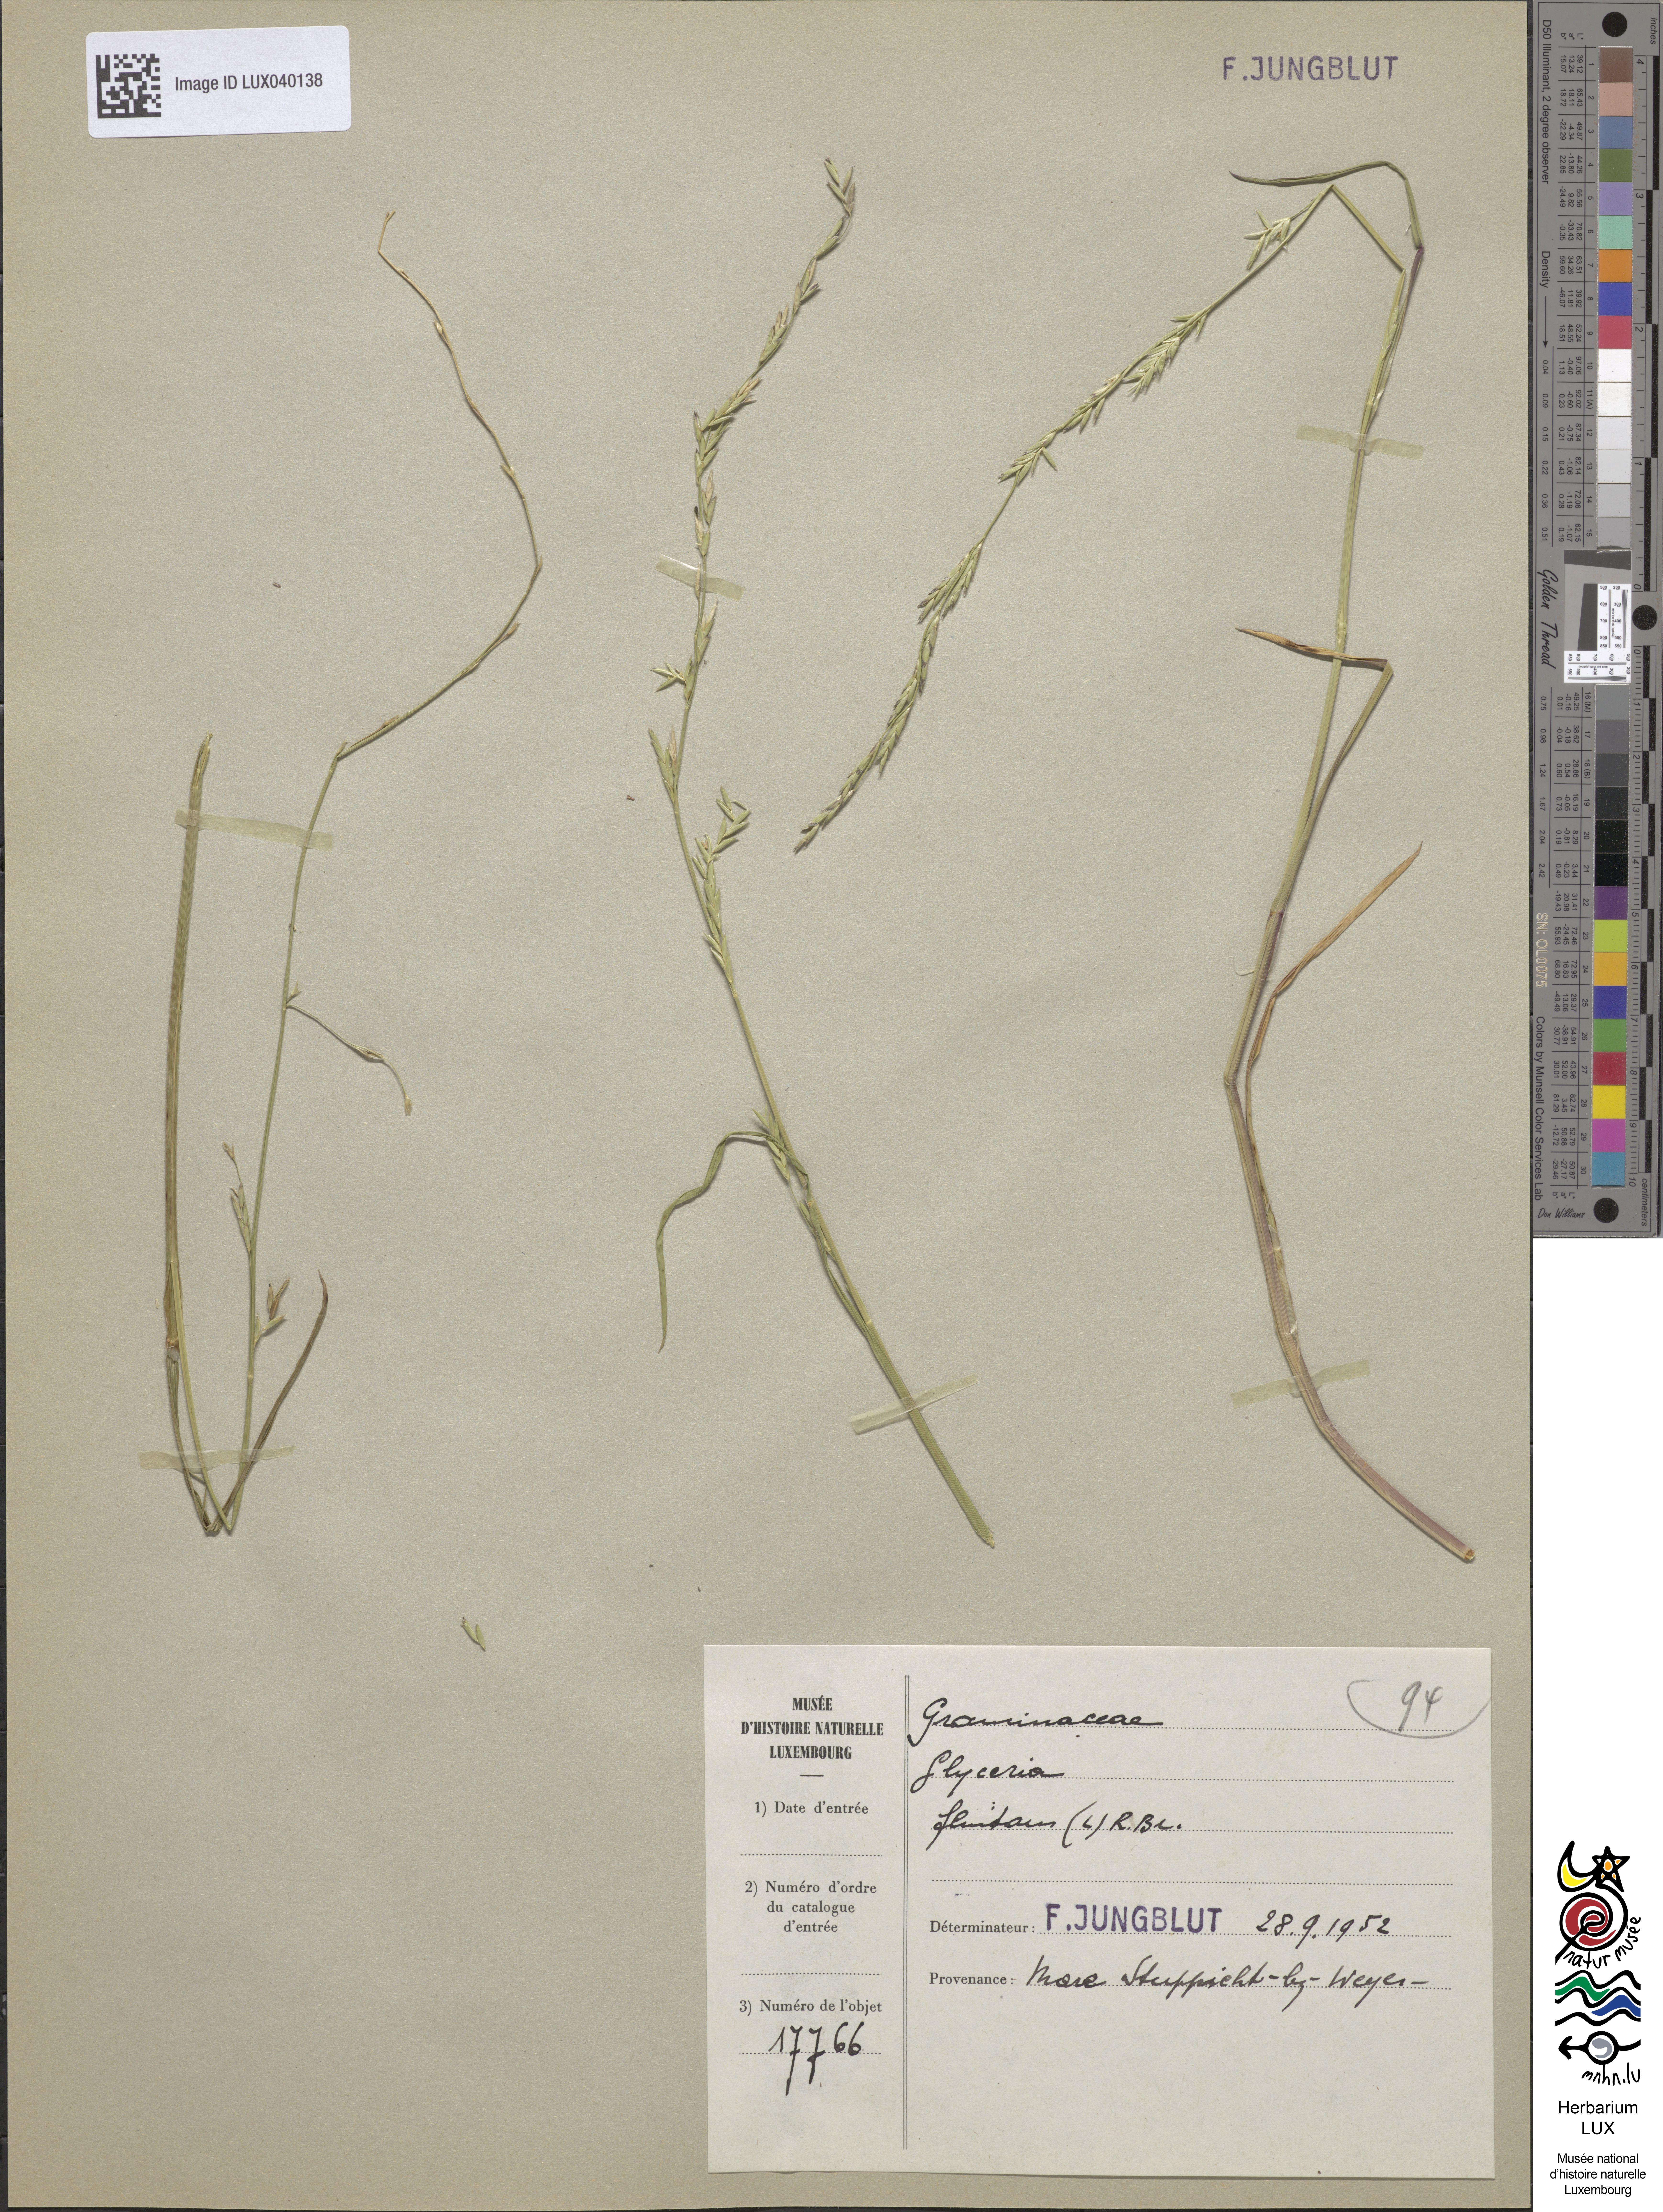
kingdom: Plantae
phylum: Tracheophyta
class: Liliopsida
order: Poales
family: Poaceae
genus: Glyceria
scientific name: Glyceria fluitans
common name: Floating sweet-grass
